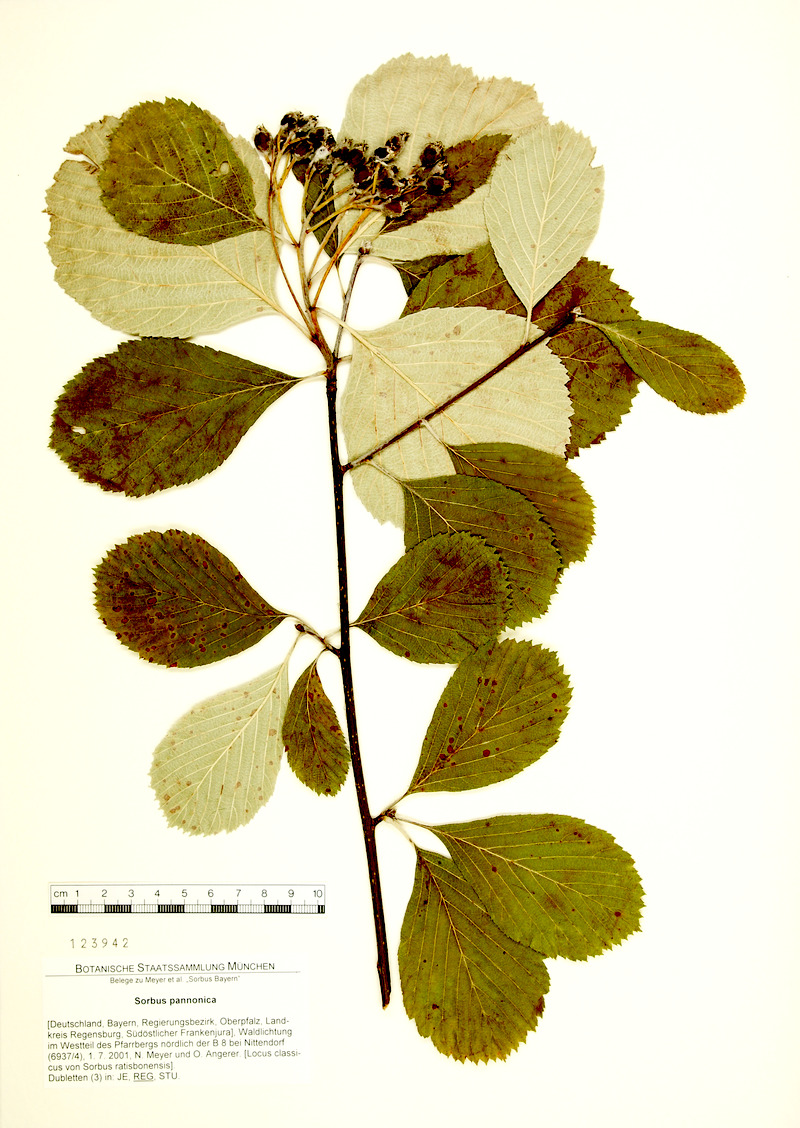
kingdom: Plantae
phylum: Tracheophyta
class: Magnoliopsida
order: Rosales
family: Rosaceae
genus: Aria
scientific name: Aria pannonica
